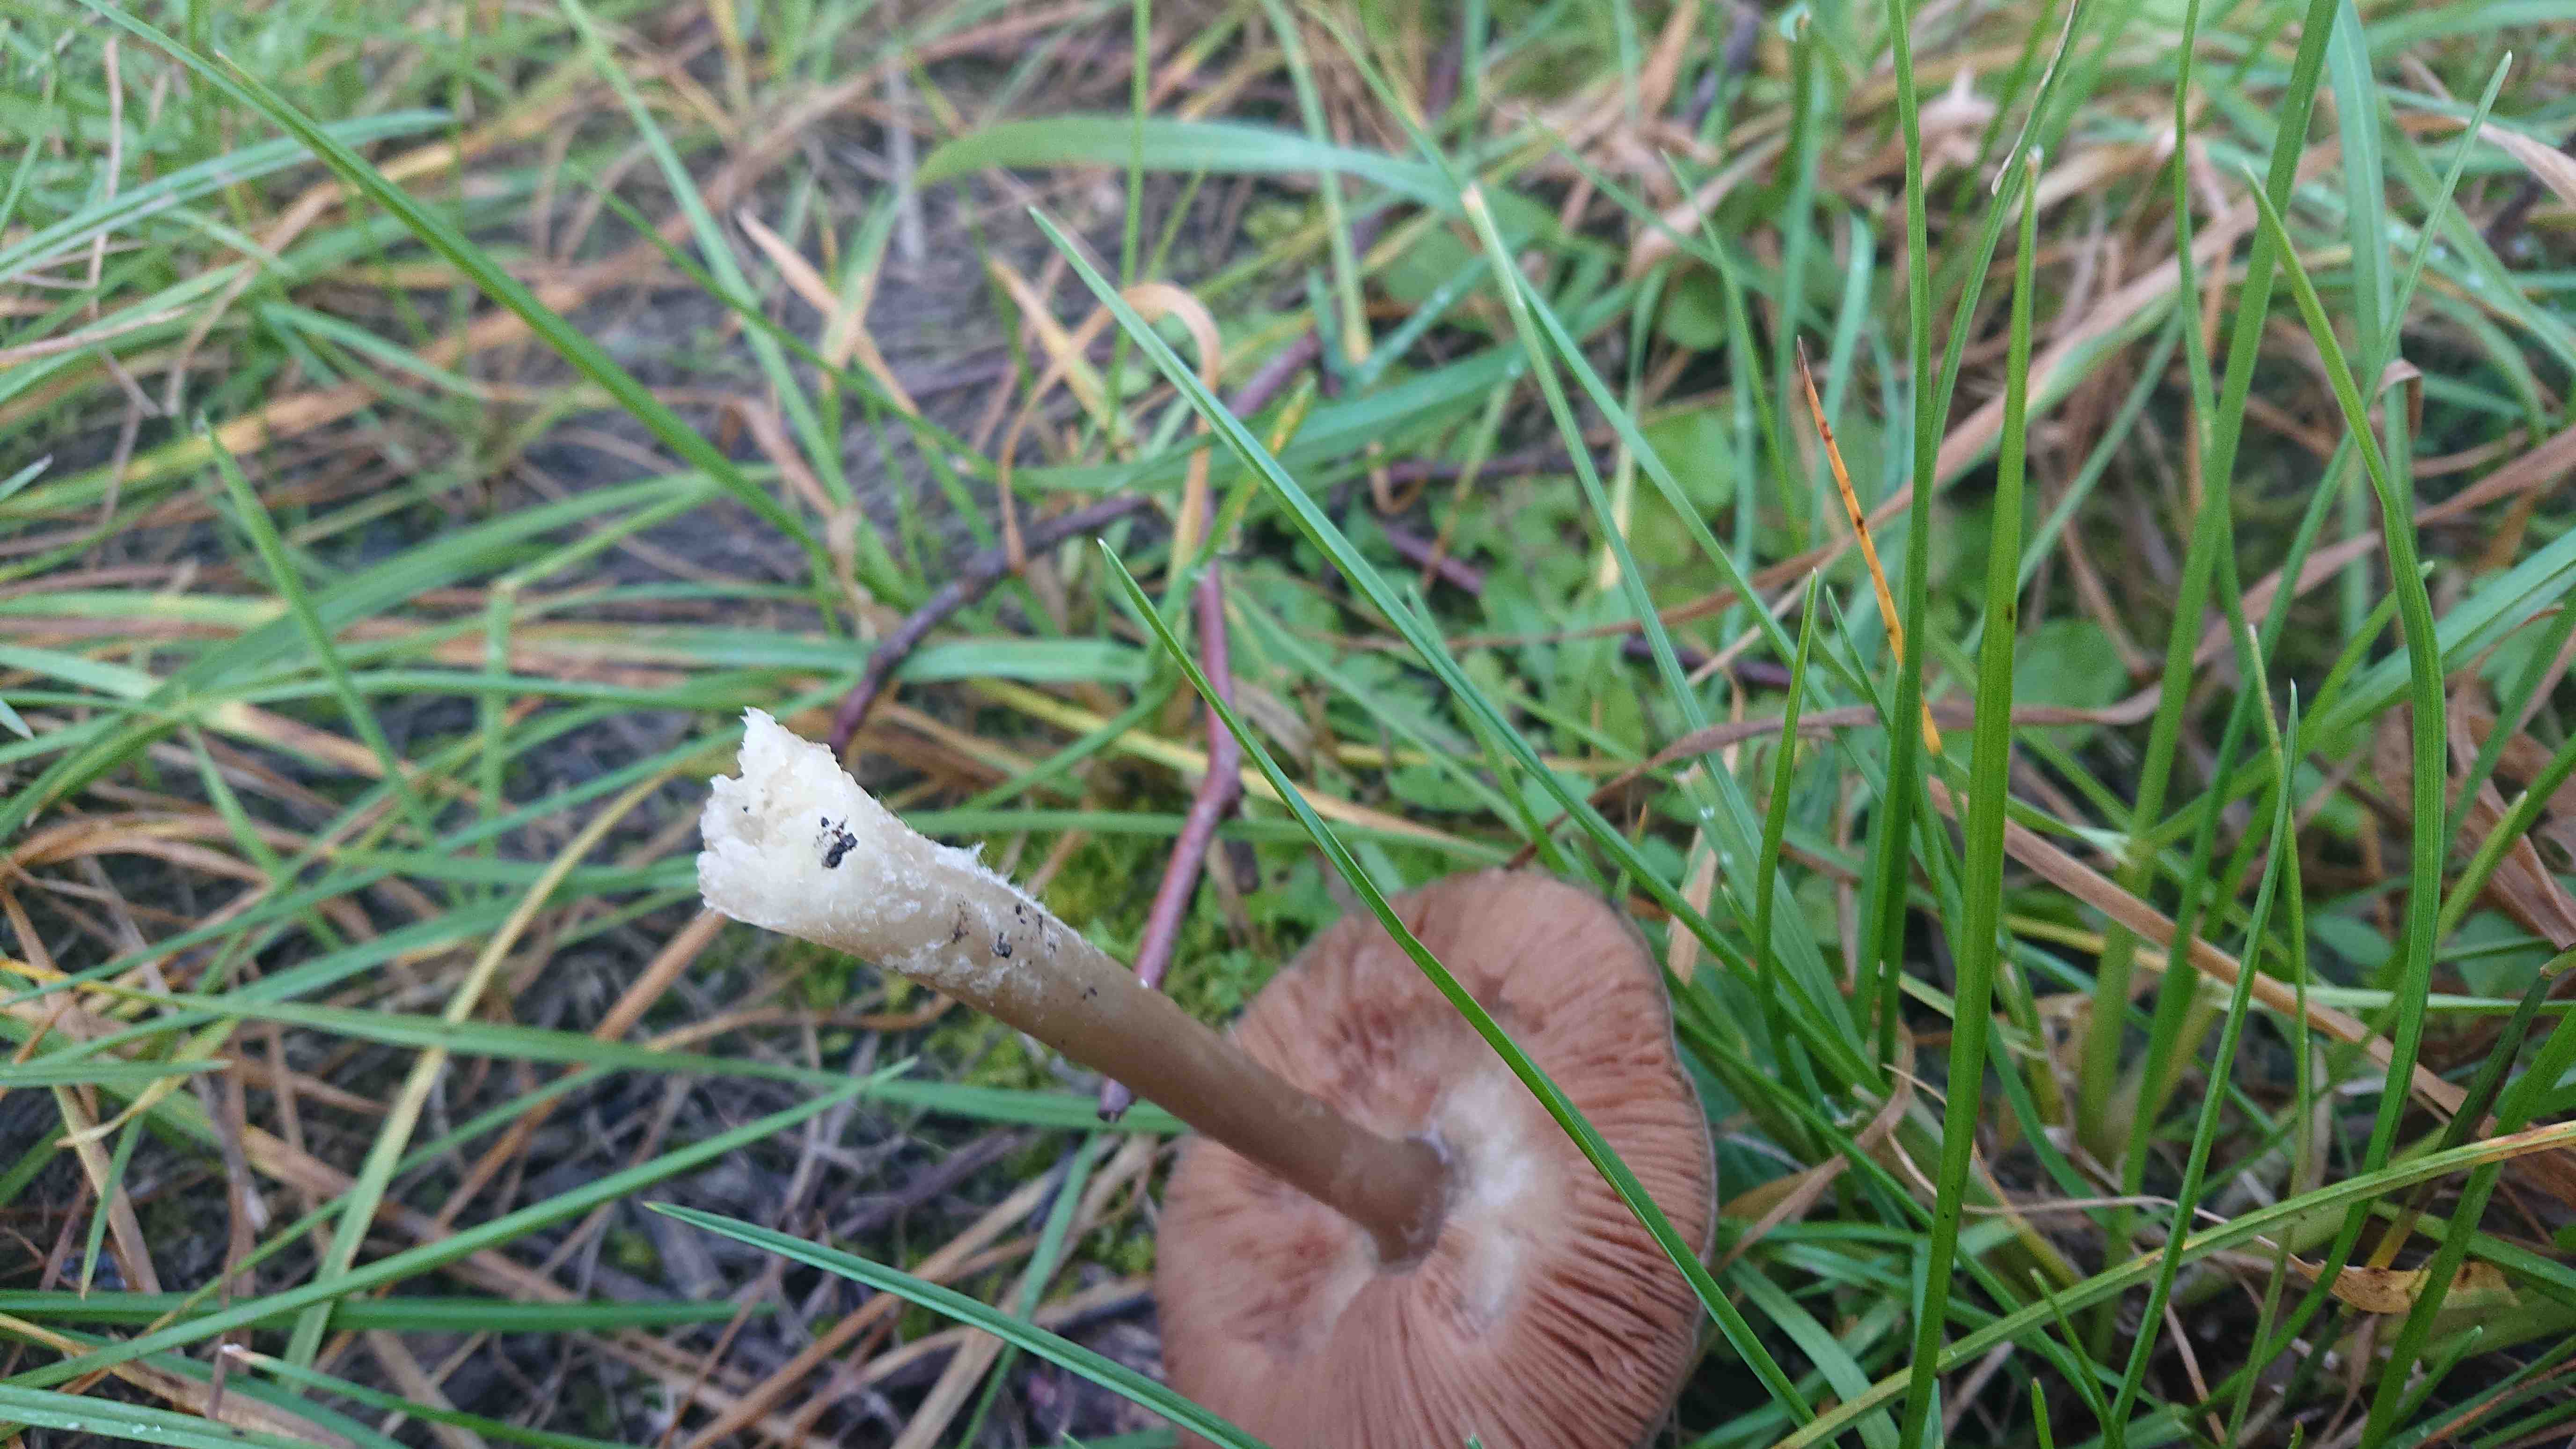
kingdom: Fungi
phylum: Basidiomycota
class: Agaricomycetes
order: Agaricales
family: Pluteaceae
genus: Volvopluteus
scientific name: Volvopluteus gloiocephalus
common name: høj posesvamp
